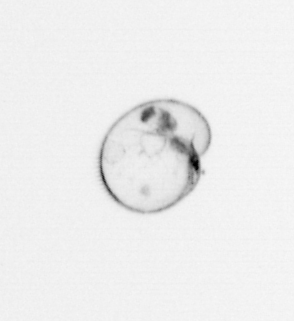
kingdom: Chromista
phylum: Myzozoa
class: Dinophyceae
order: Noctilucales
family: Noctilucaceae
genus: Noctiluca
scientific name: Noctiluca scintillans
